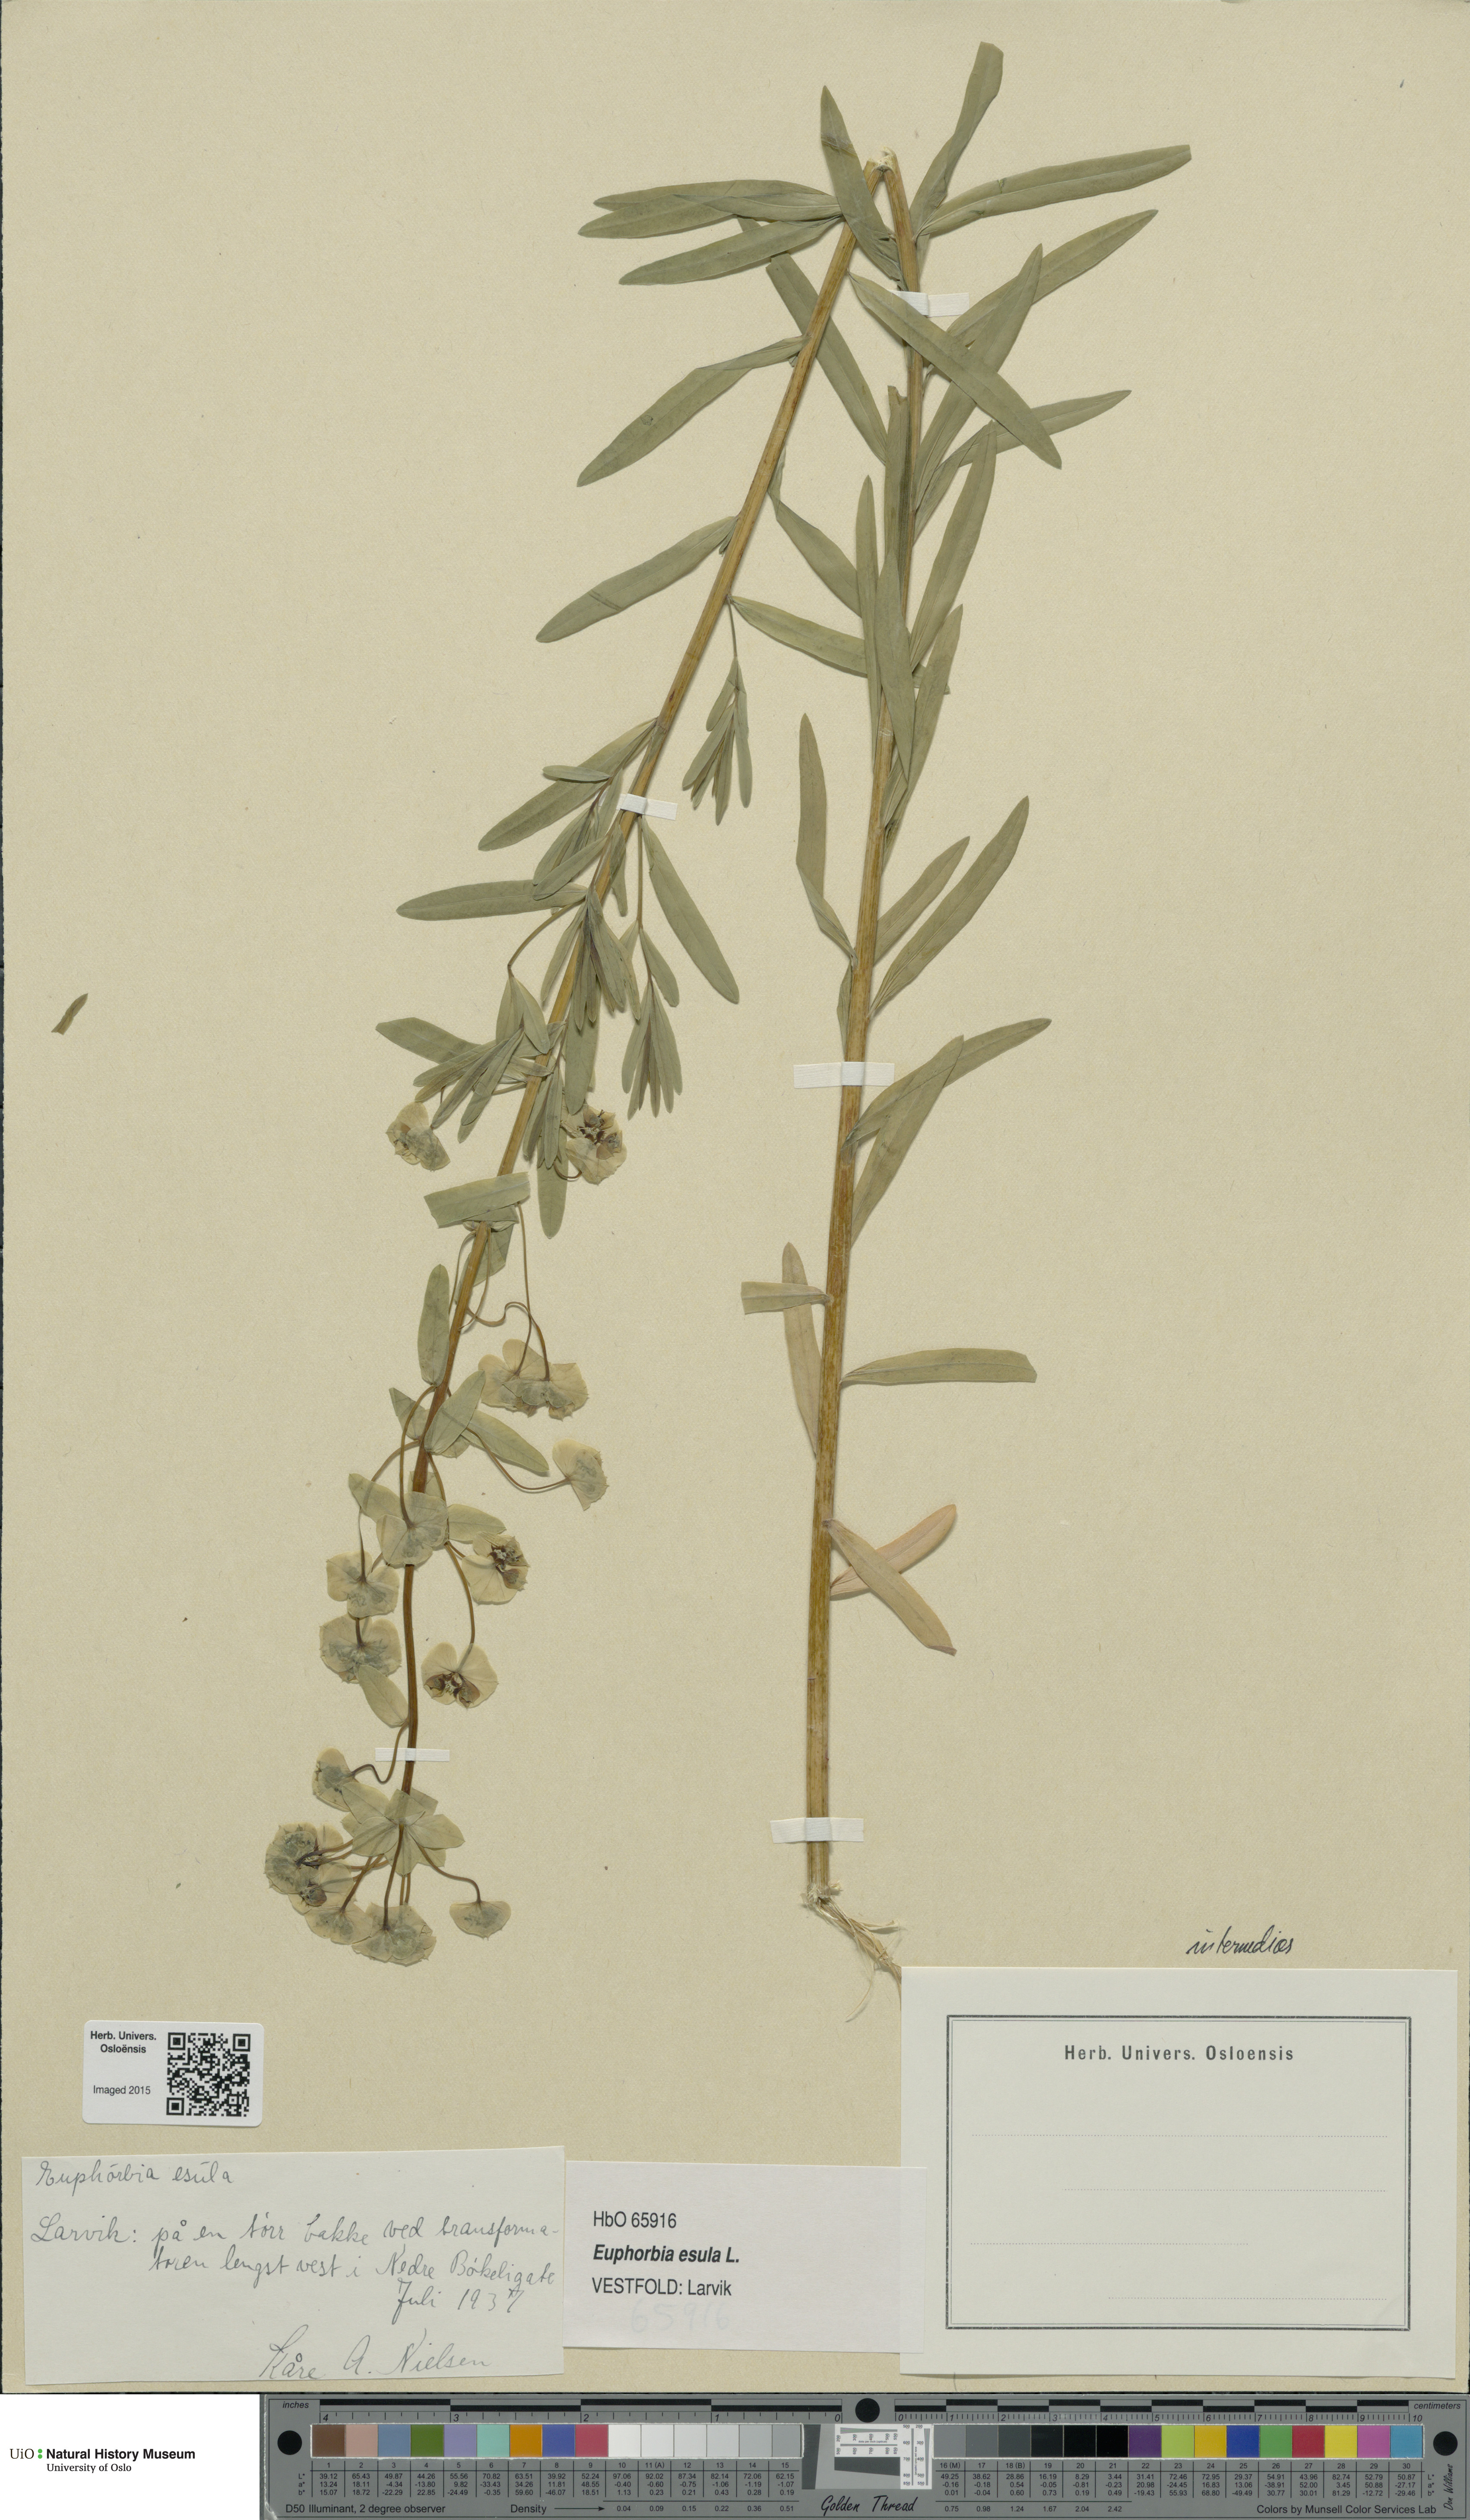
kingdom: Plantae
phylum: Tracheophyta
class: Magnoliopsida
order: Malpighiales
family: Euphorbiaceae
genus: Euphorbia
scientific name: Euphorbia esula
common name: Leafy spurge
